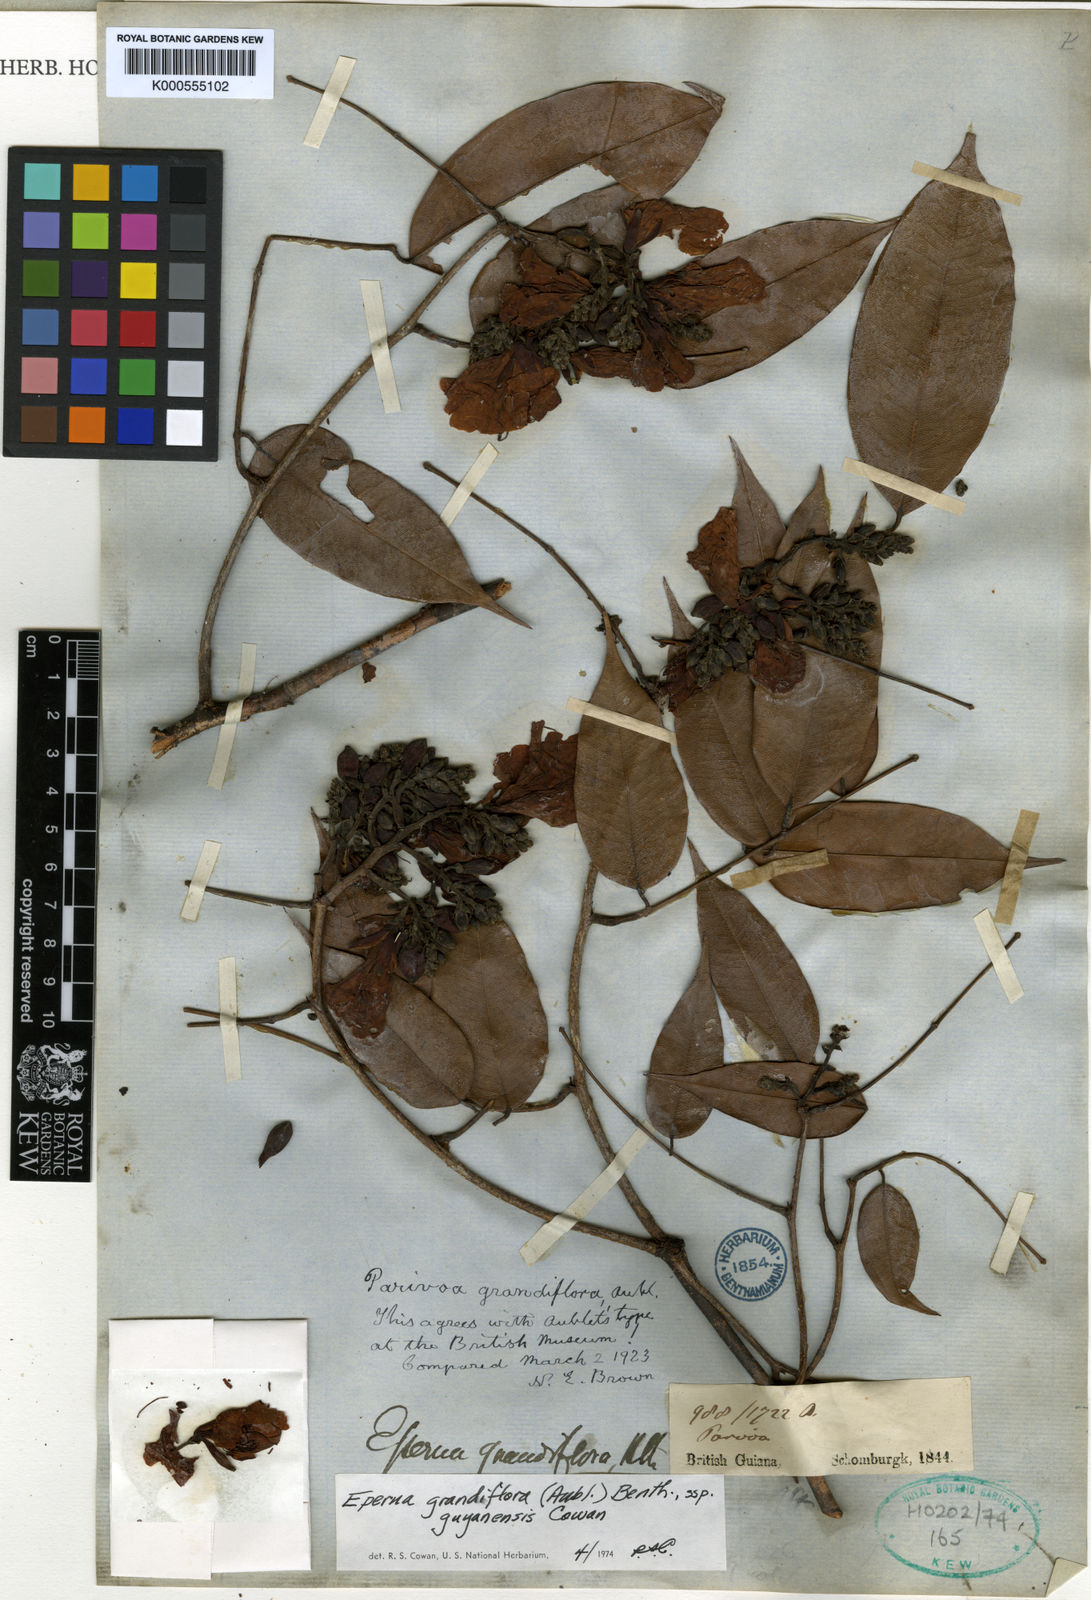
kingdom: Plantae
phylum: Tracheophyta
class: Magnoliopsida
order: Fabales
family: Fabaceae
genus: Eperua
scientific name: Eperua grandiflora
